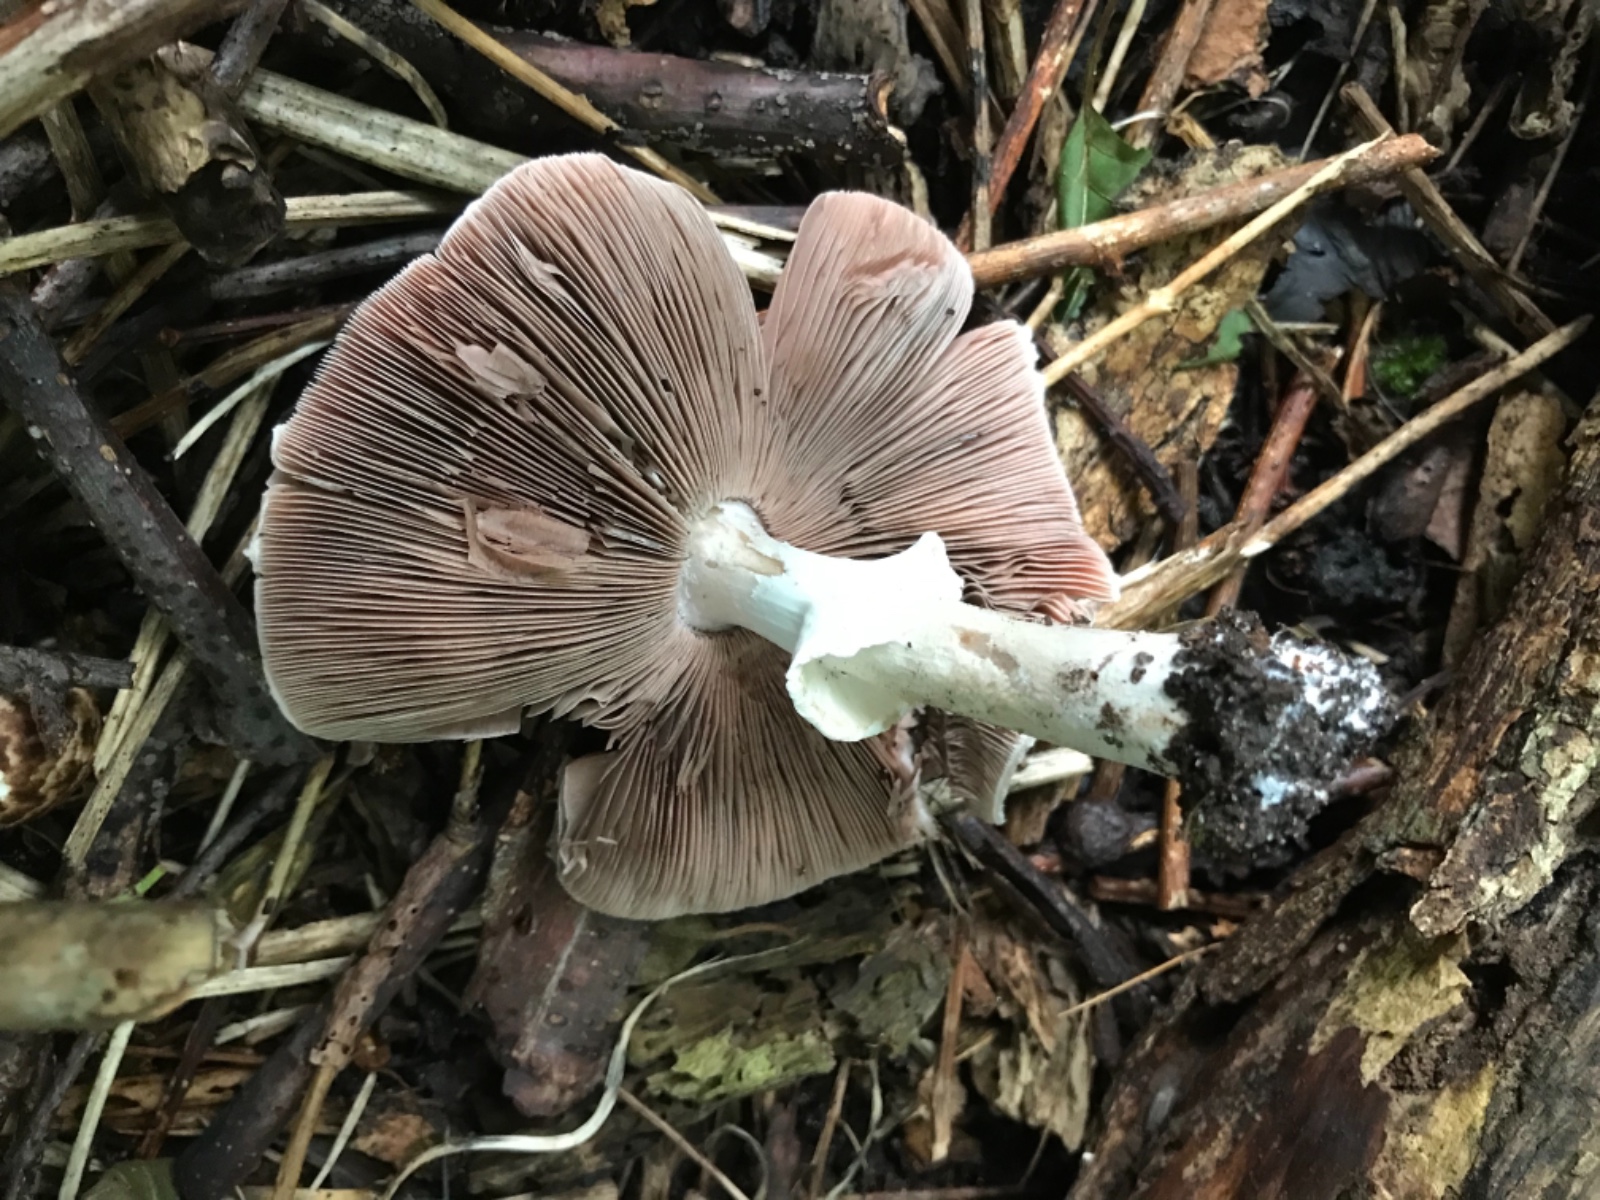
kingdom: Fungi
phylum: Basidiomycota
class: Agaricomycetes
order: Agaricales
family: Agaricaceae
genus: Agaricus
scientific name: Agaricus impudicus
